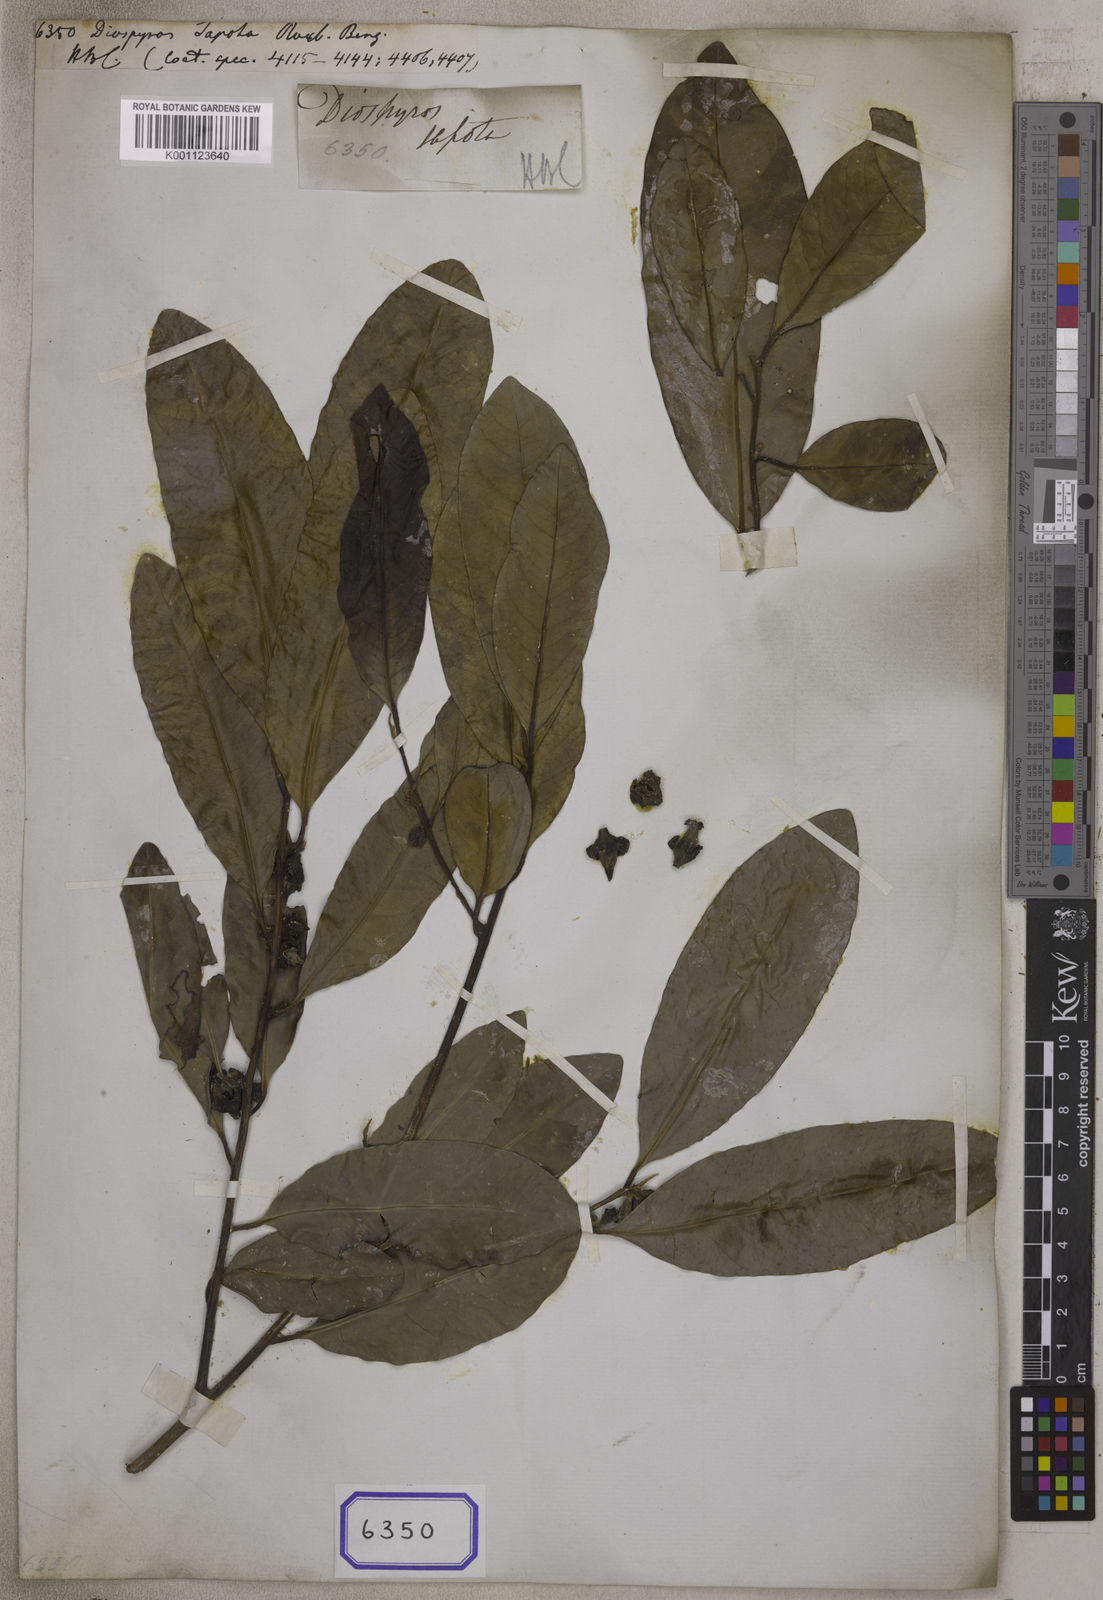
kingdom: Plantae
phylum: Tracheophyta
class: Magnoliopsida
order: Ericales
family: Ebenaceae
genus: Diospyros
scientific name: Diospyros nigra
